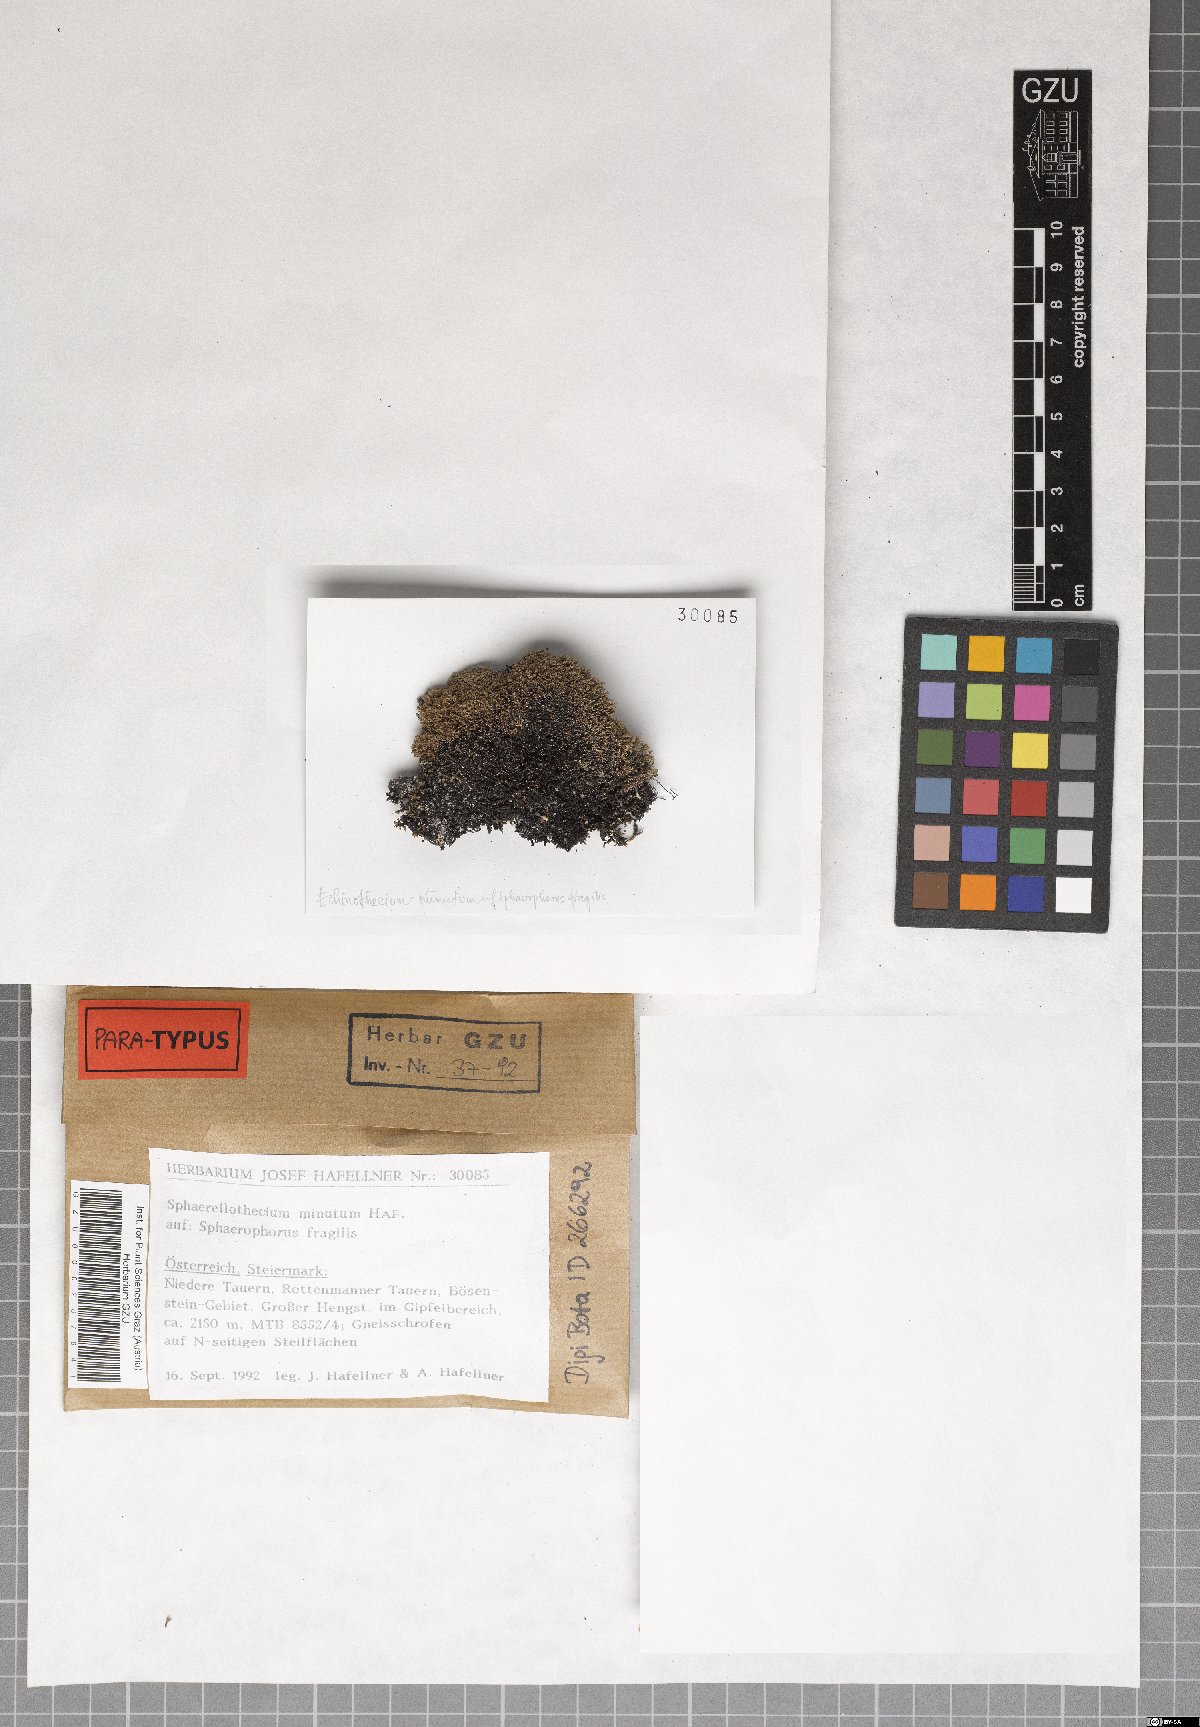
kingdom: Fungi
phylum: Ascomycota
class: Dothideomycetes
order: Mycosphaerellales
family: Mycosphaerellaceae
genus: Sphaerellothecium
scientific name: Sphaerellothecium minutum
